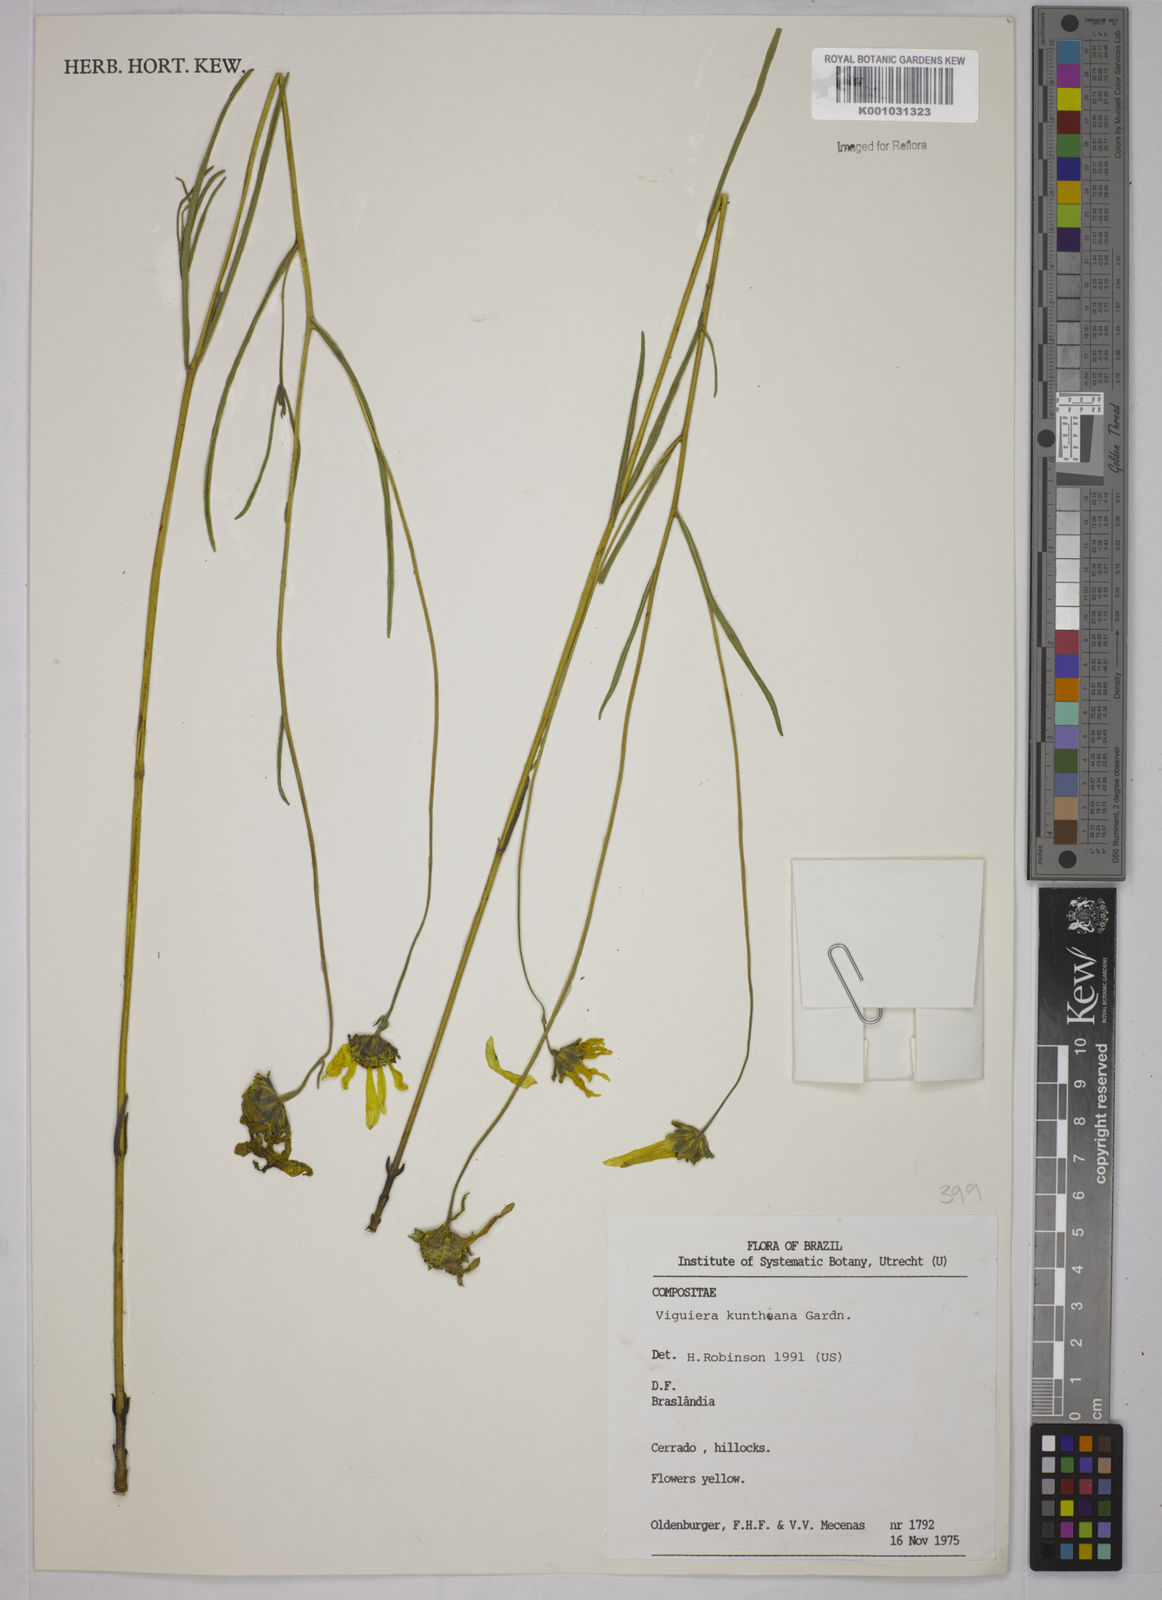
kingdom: Plantae
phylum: Tracheophyta
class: Magnoliopsida
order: Asterales
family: Asteraceae
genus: Aldama
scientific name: Aldama kunthiana
